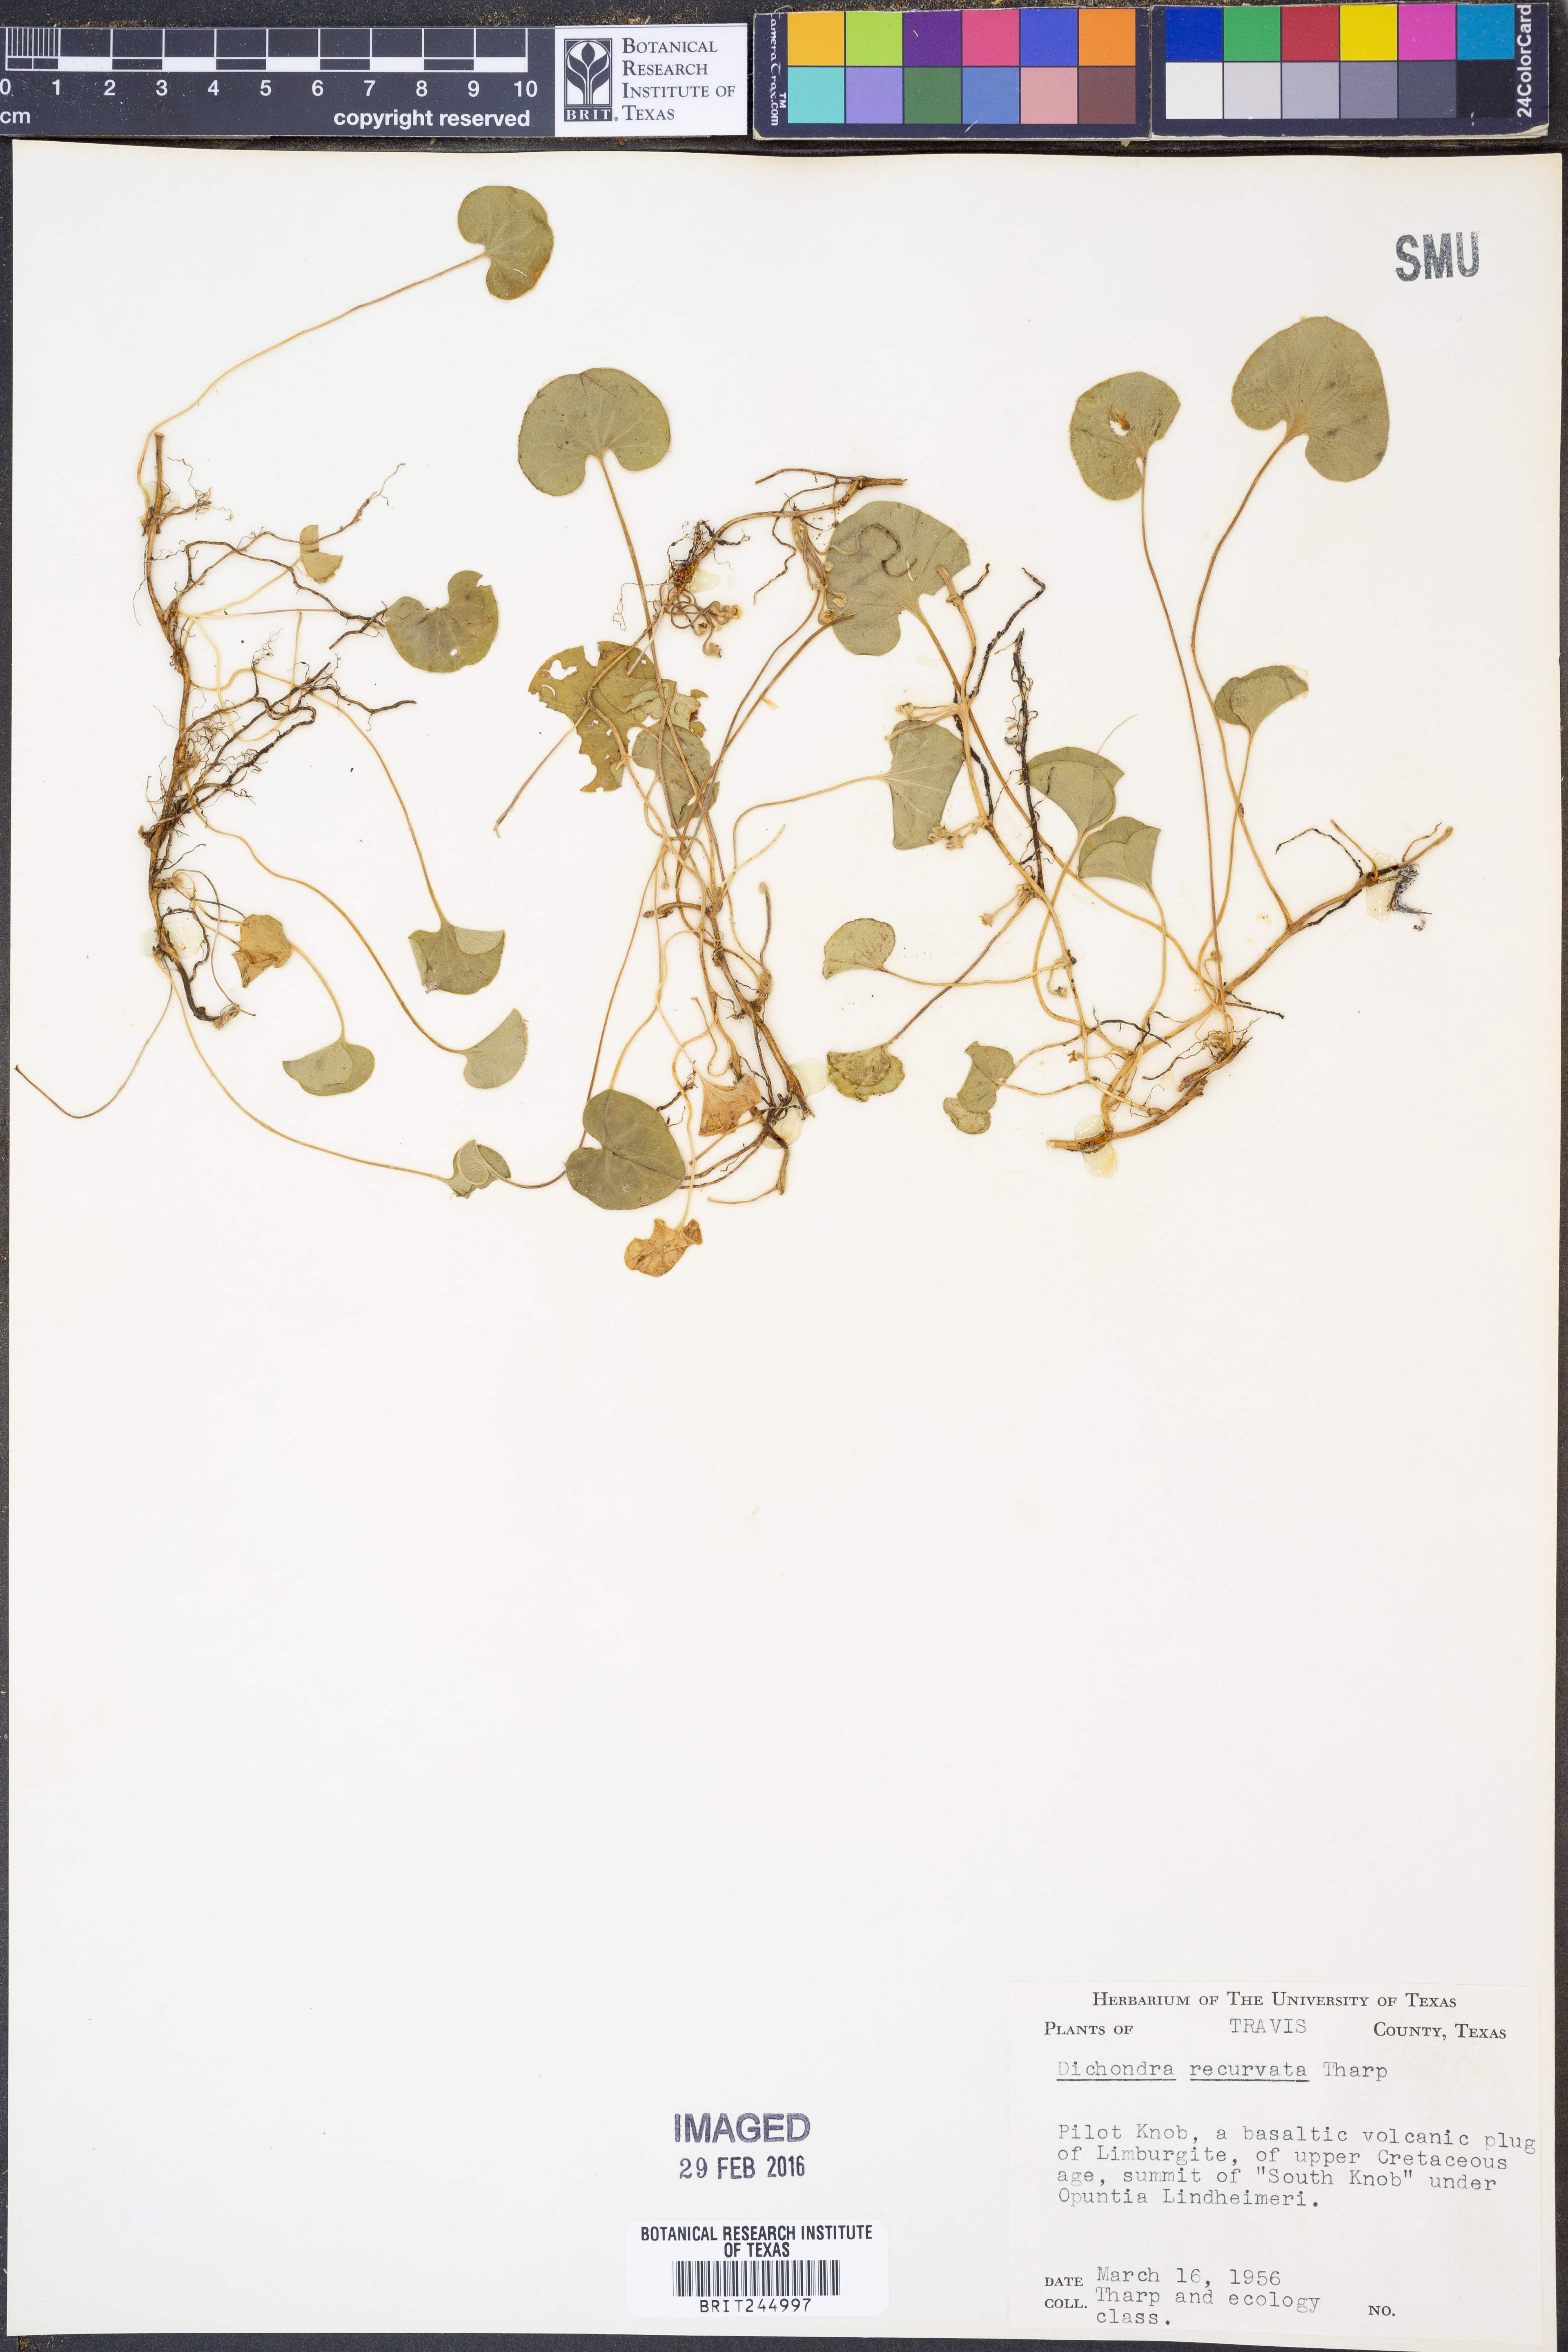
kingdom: Plantae
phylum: Tracheophyta
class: Magnoliopsida
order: Solanales
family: Convolvulaceae
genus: Dichondra
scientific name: Dichondra recurvata
